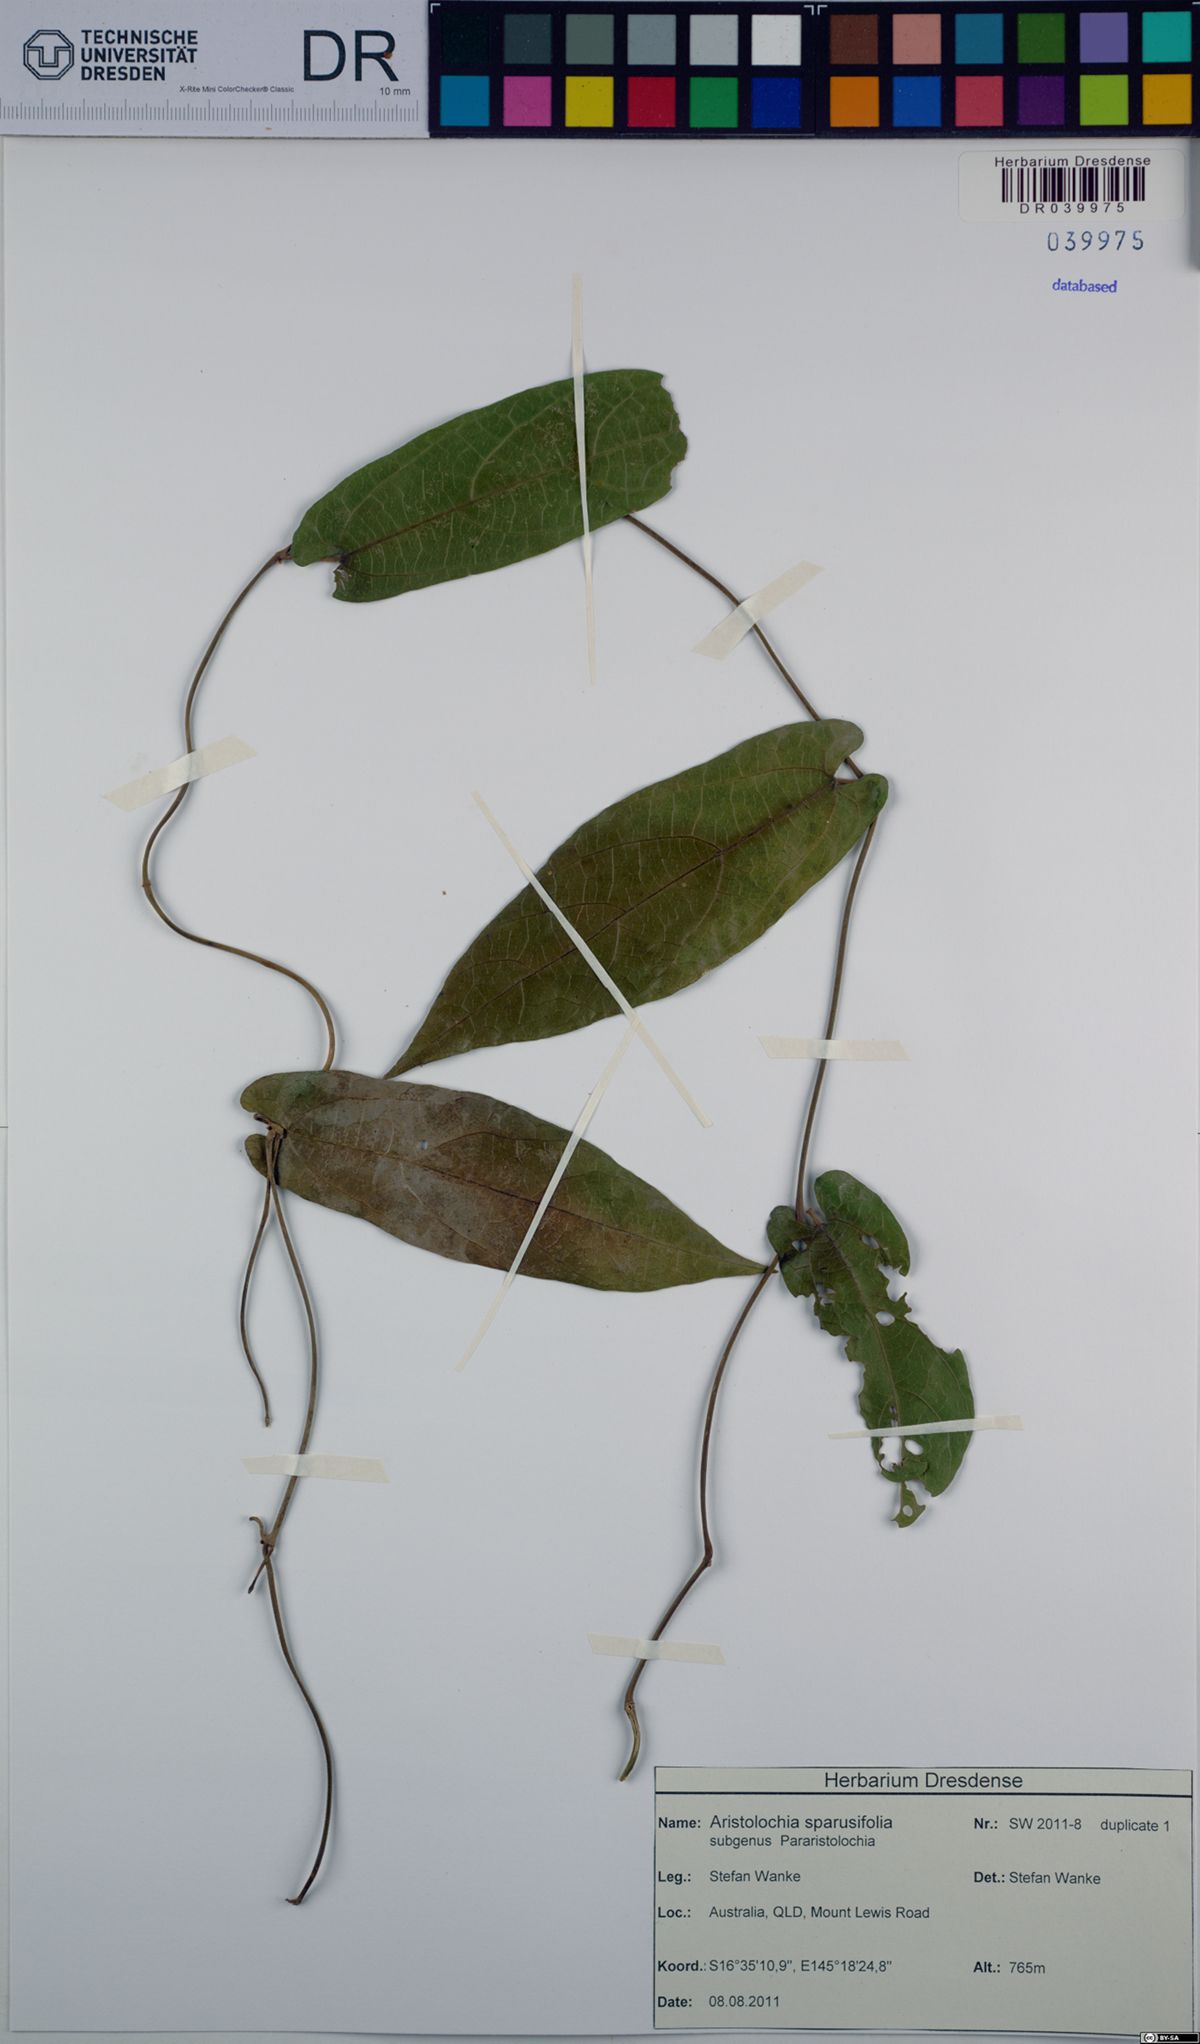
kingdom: Plantae
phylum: Tracheophyta
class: Magnoliopsida
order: Piperales
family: Aristolochiaceae
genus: Aristolochia
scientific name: Aristolochia sparusifolia
